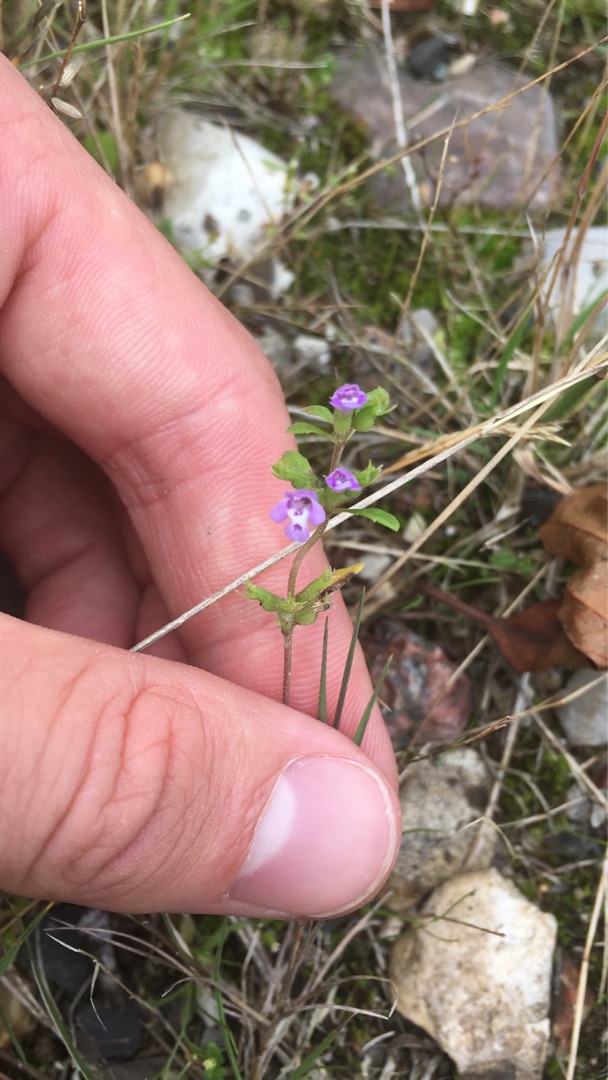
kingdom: Plantae
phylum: Tracheophyta
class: Magnoliopsida
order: Lamiales
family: Lamiaceae
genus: Clinopodium
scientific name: Clinopodium acinos
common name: Voldtimian
